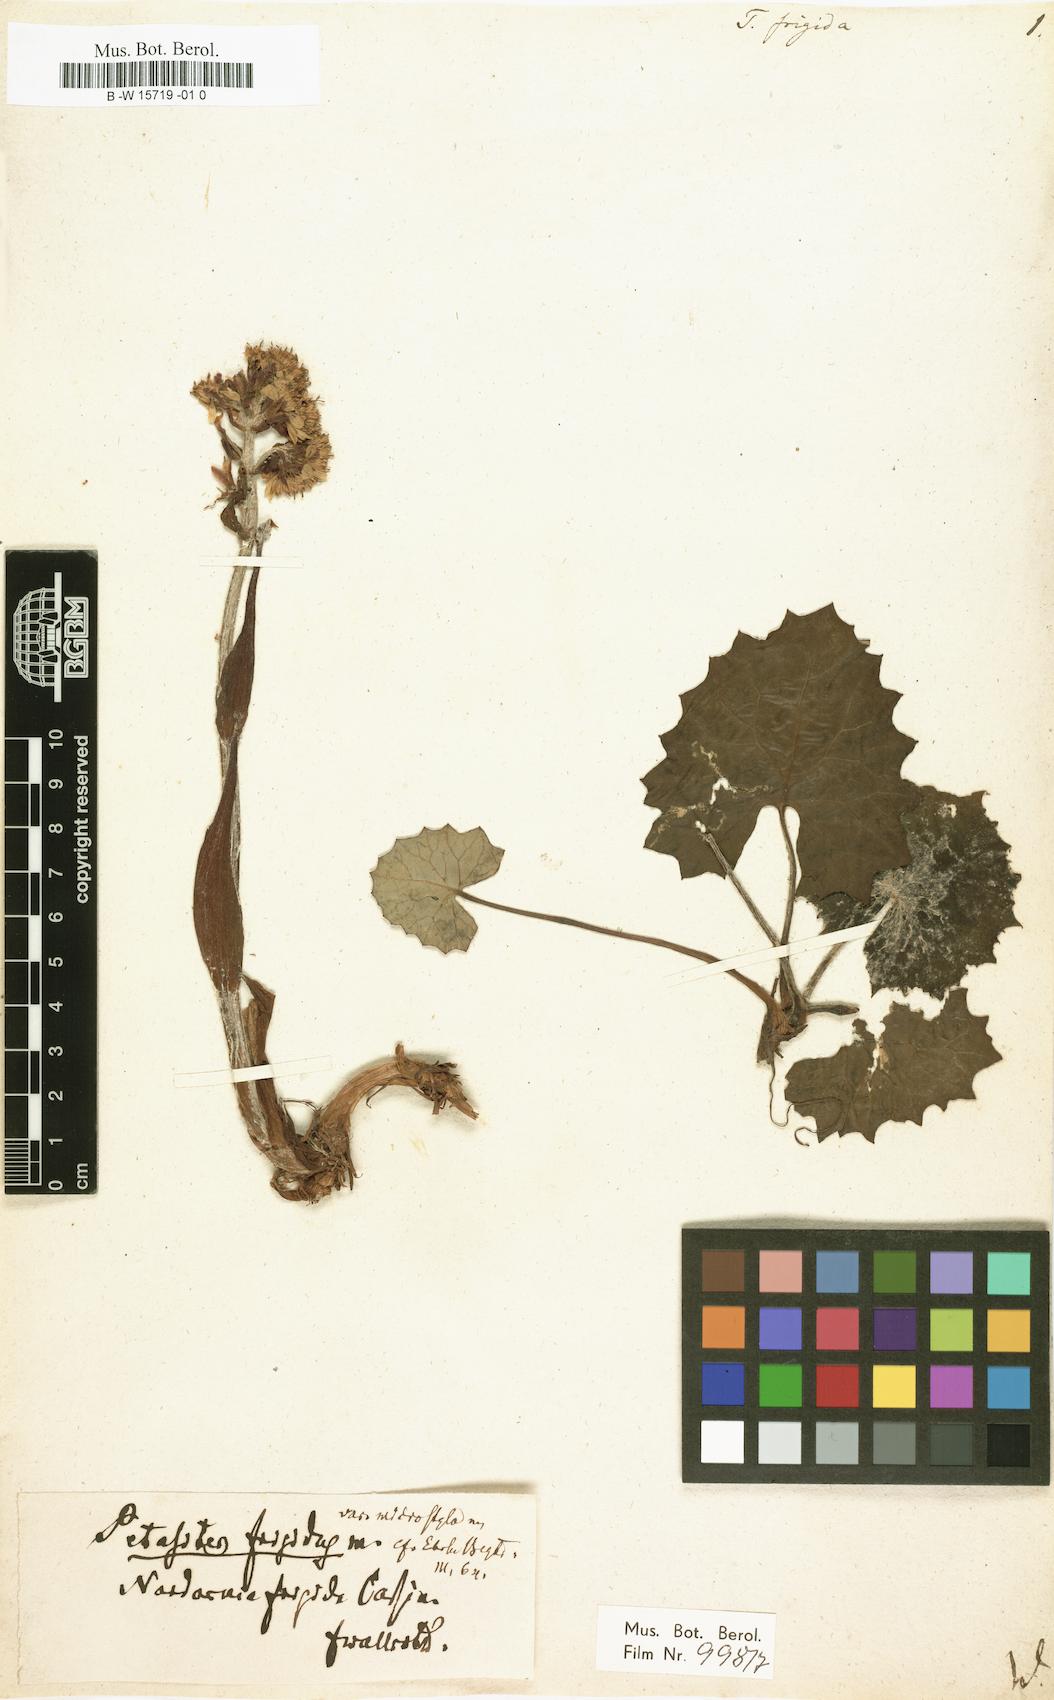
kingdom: Plantae
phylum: Tracheophyta
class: Magnoliopsida
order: Asterales
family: Asteraceae
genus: Petasites
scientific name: Petasites
